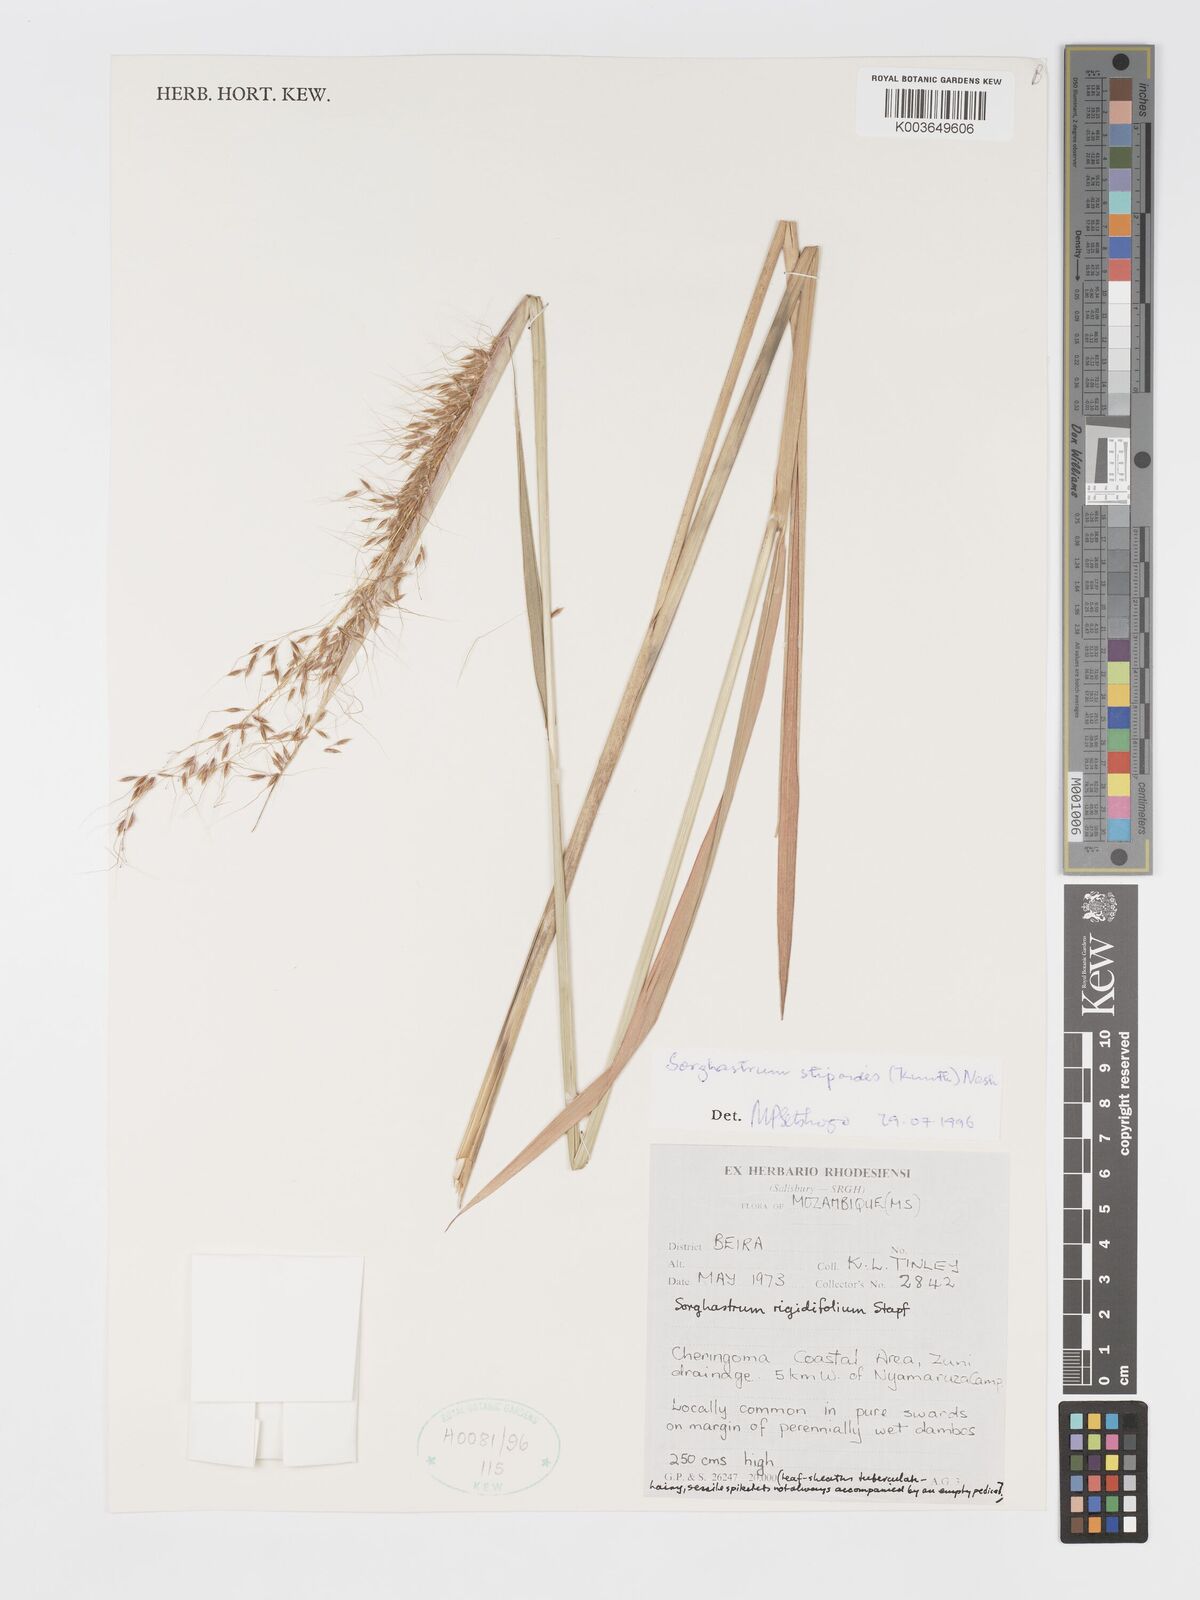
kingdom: Plantae
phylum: Tracheophyta
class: Liliopsida
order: Poales
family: Poaceae
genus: Sorghastrum
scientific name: Sorghastrum stipoides
